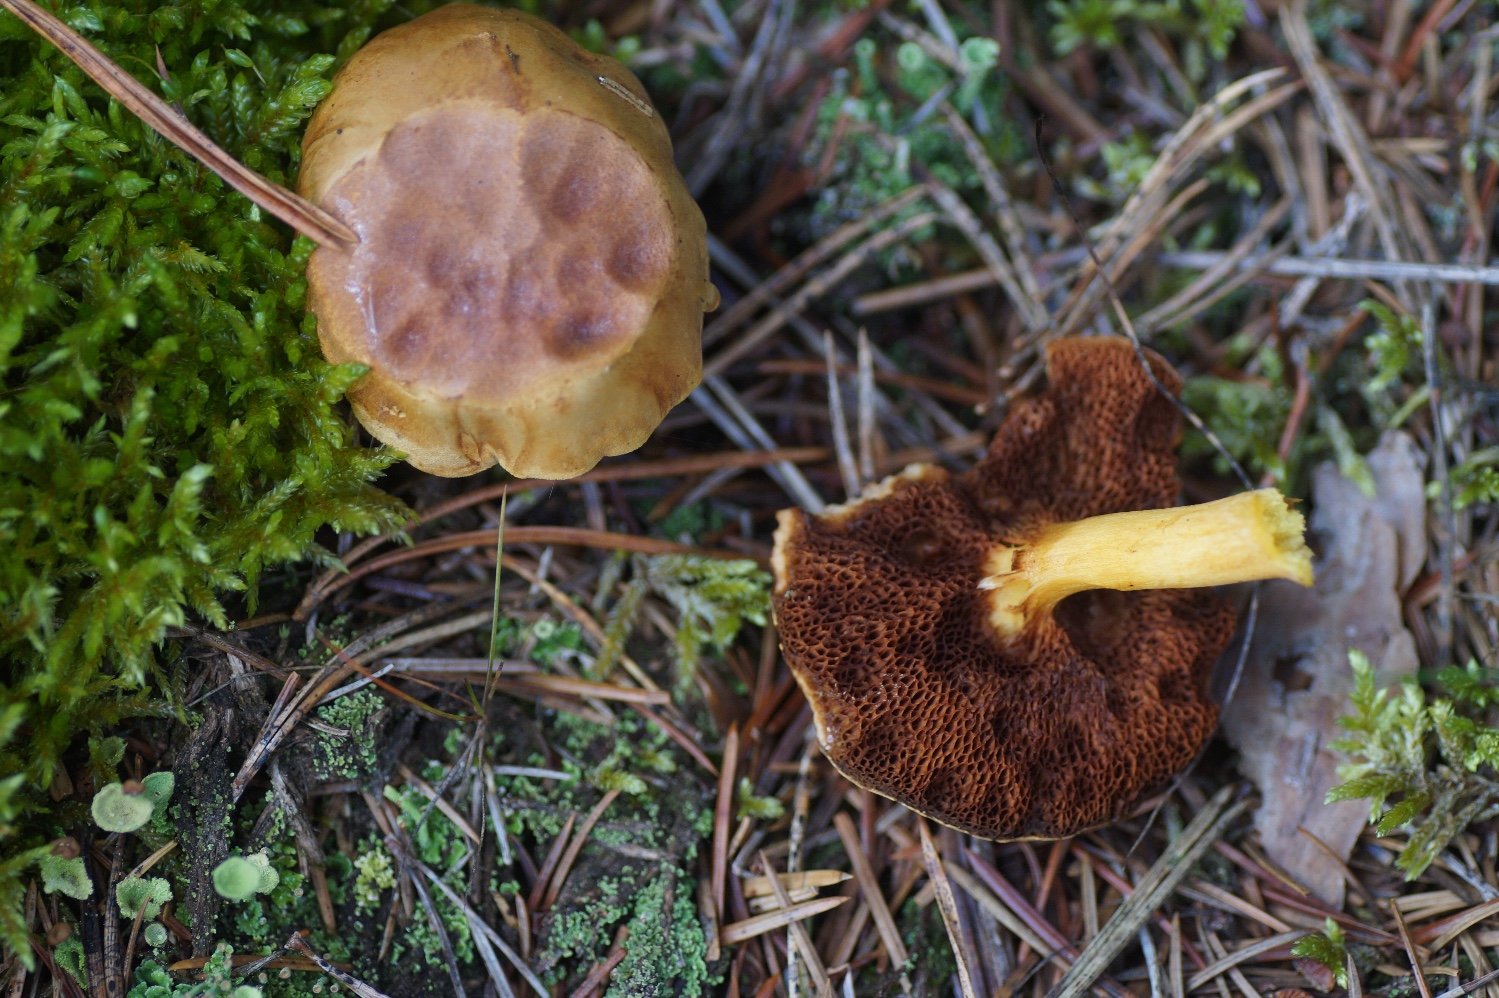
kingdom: Fungi
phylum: Basidiomycota
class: Agaricomycetes
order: Boletales
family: Boletaceae
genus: Chalciporus
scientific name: Chalciporus piperatus
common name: peberrørhat
